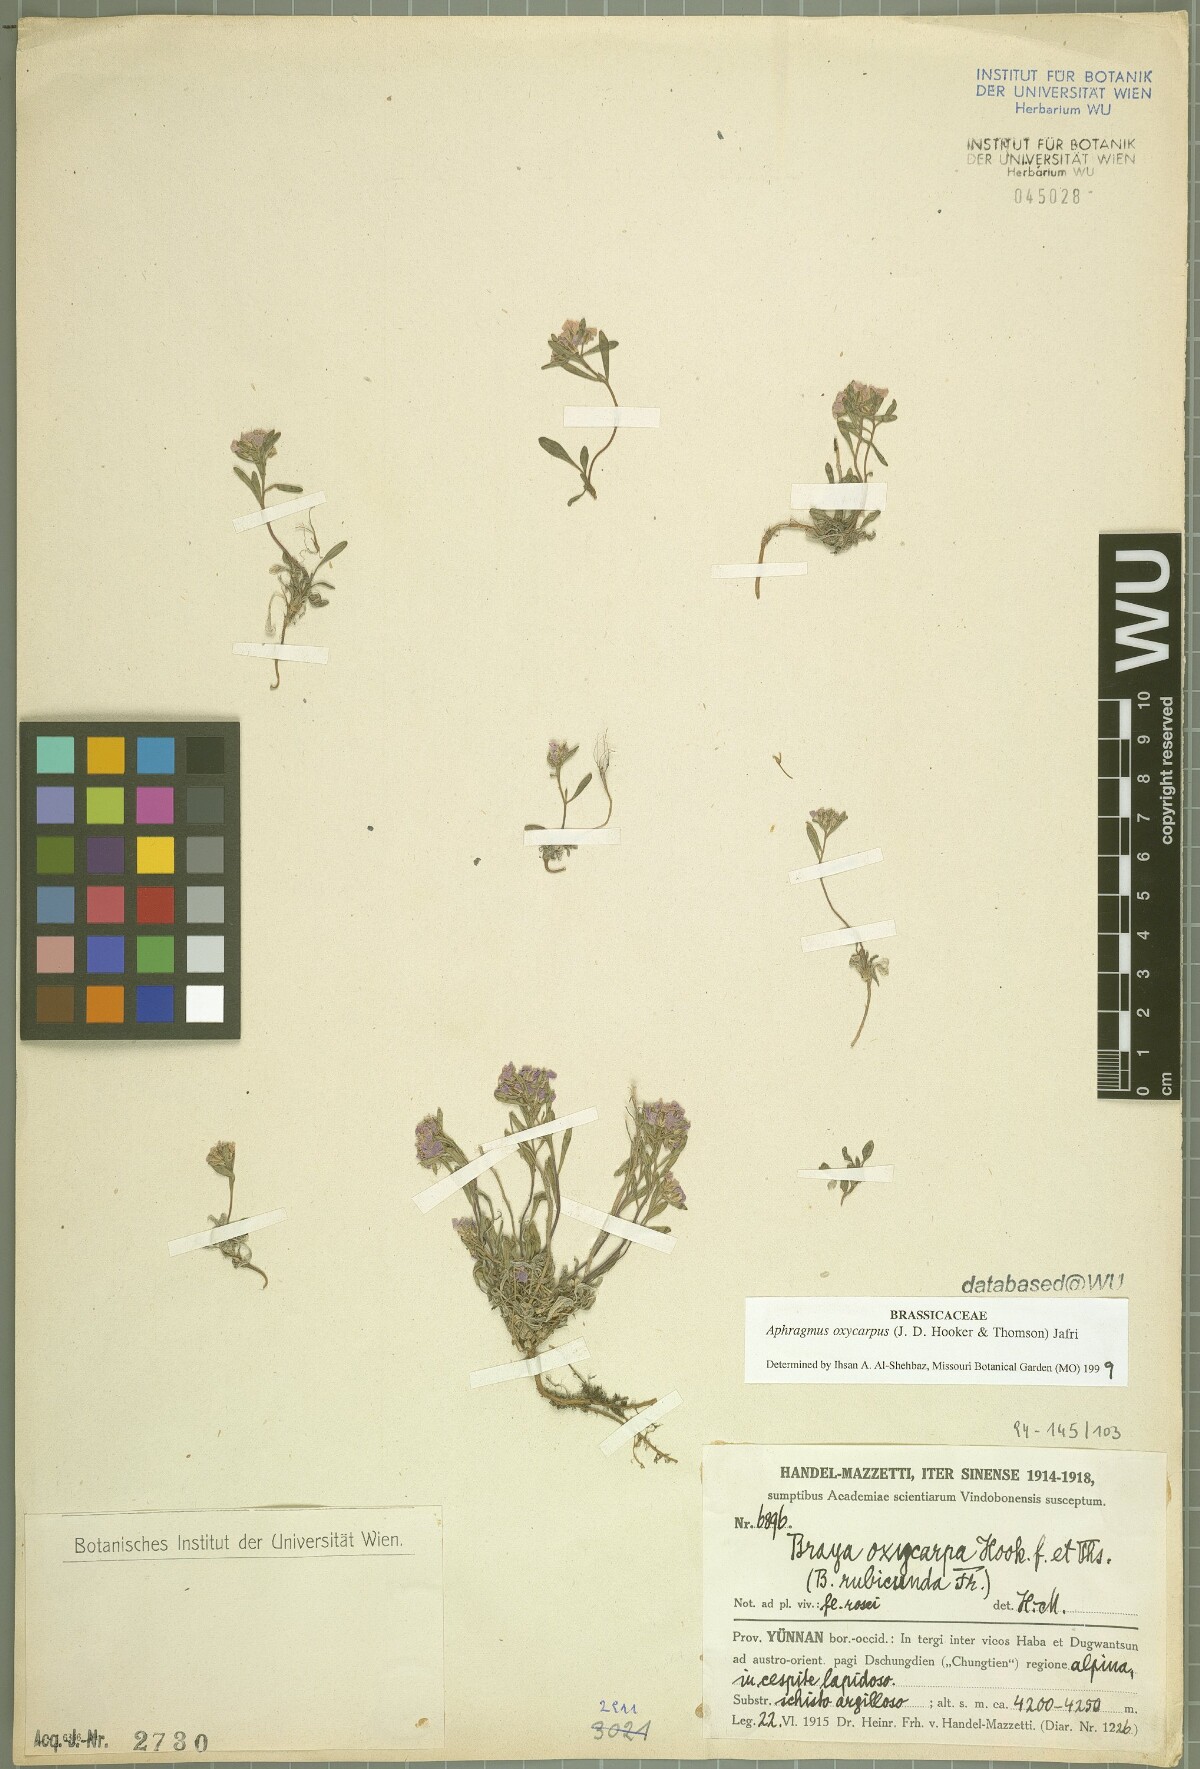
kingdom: Plantae
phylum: Tracheophyta
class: Magnoliopsida
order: Brassicales
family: Brassicaceae
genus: Aphragmus
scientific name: Aphragmus oxycarpus
